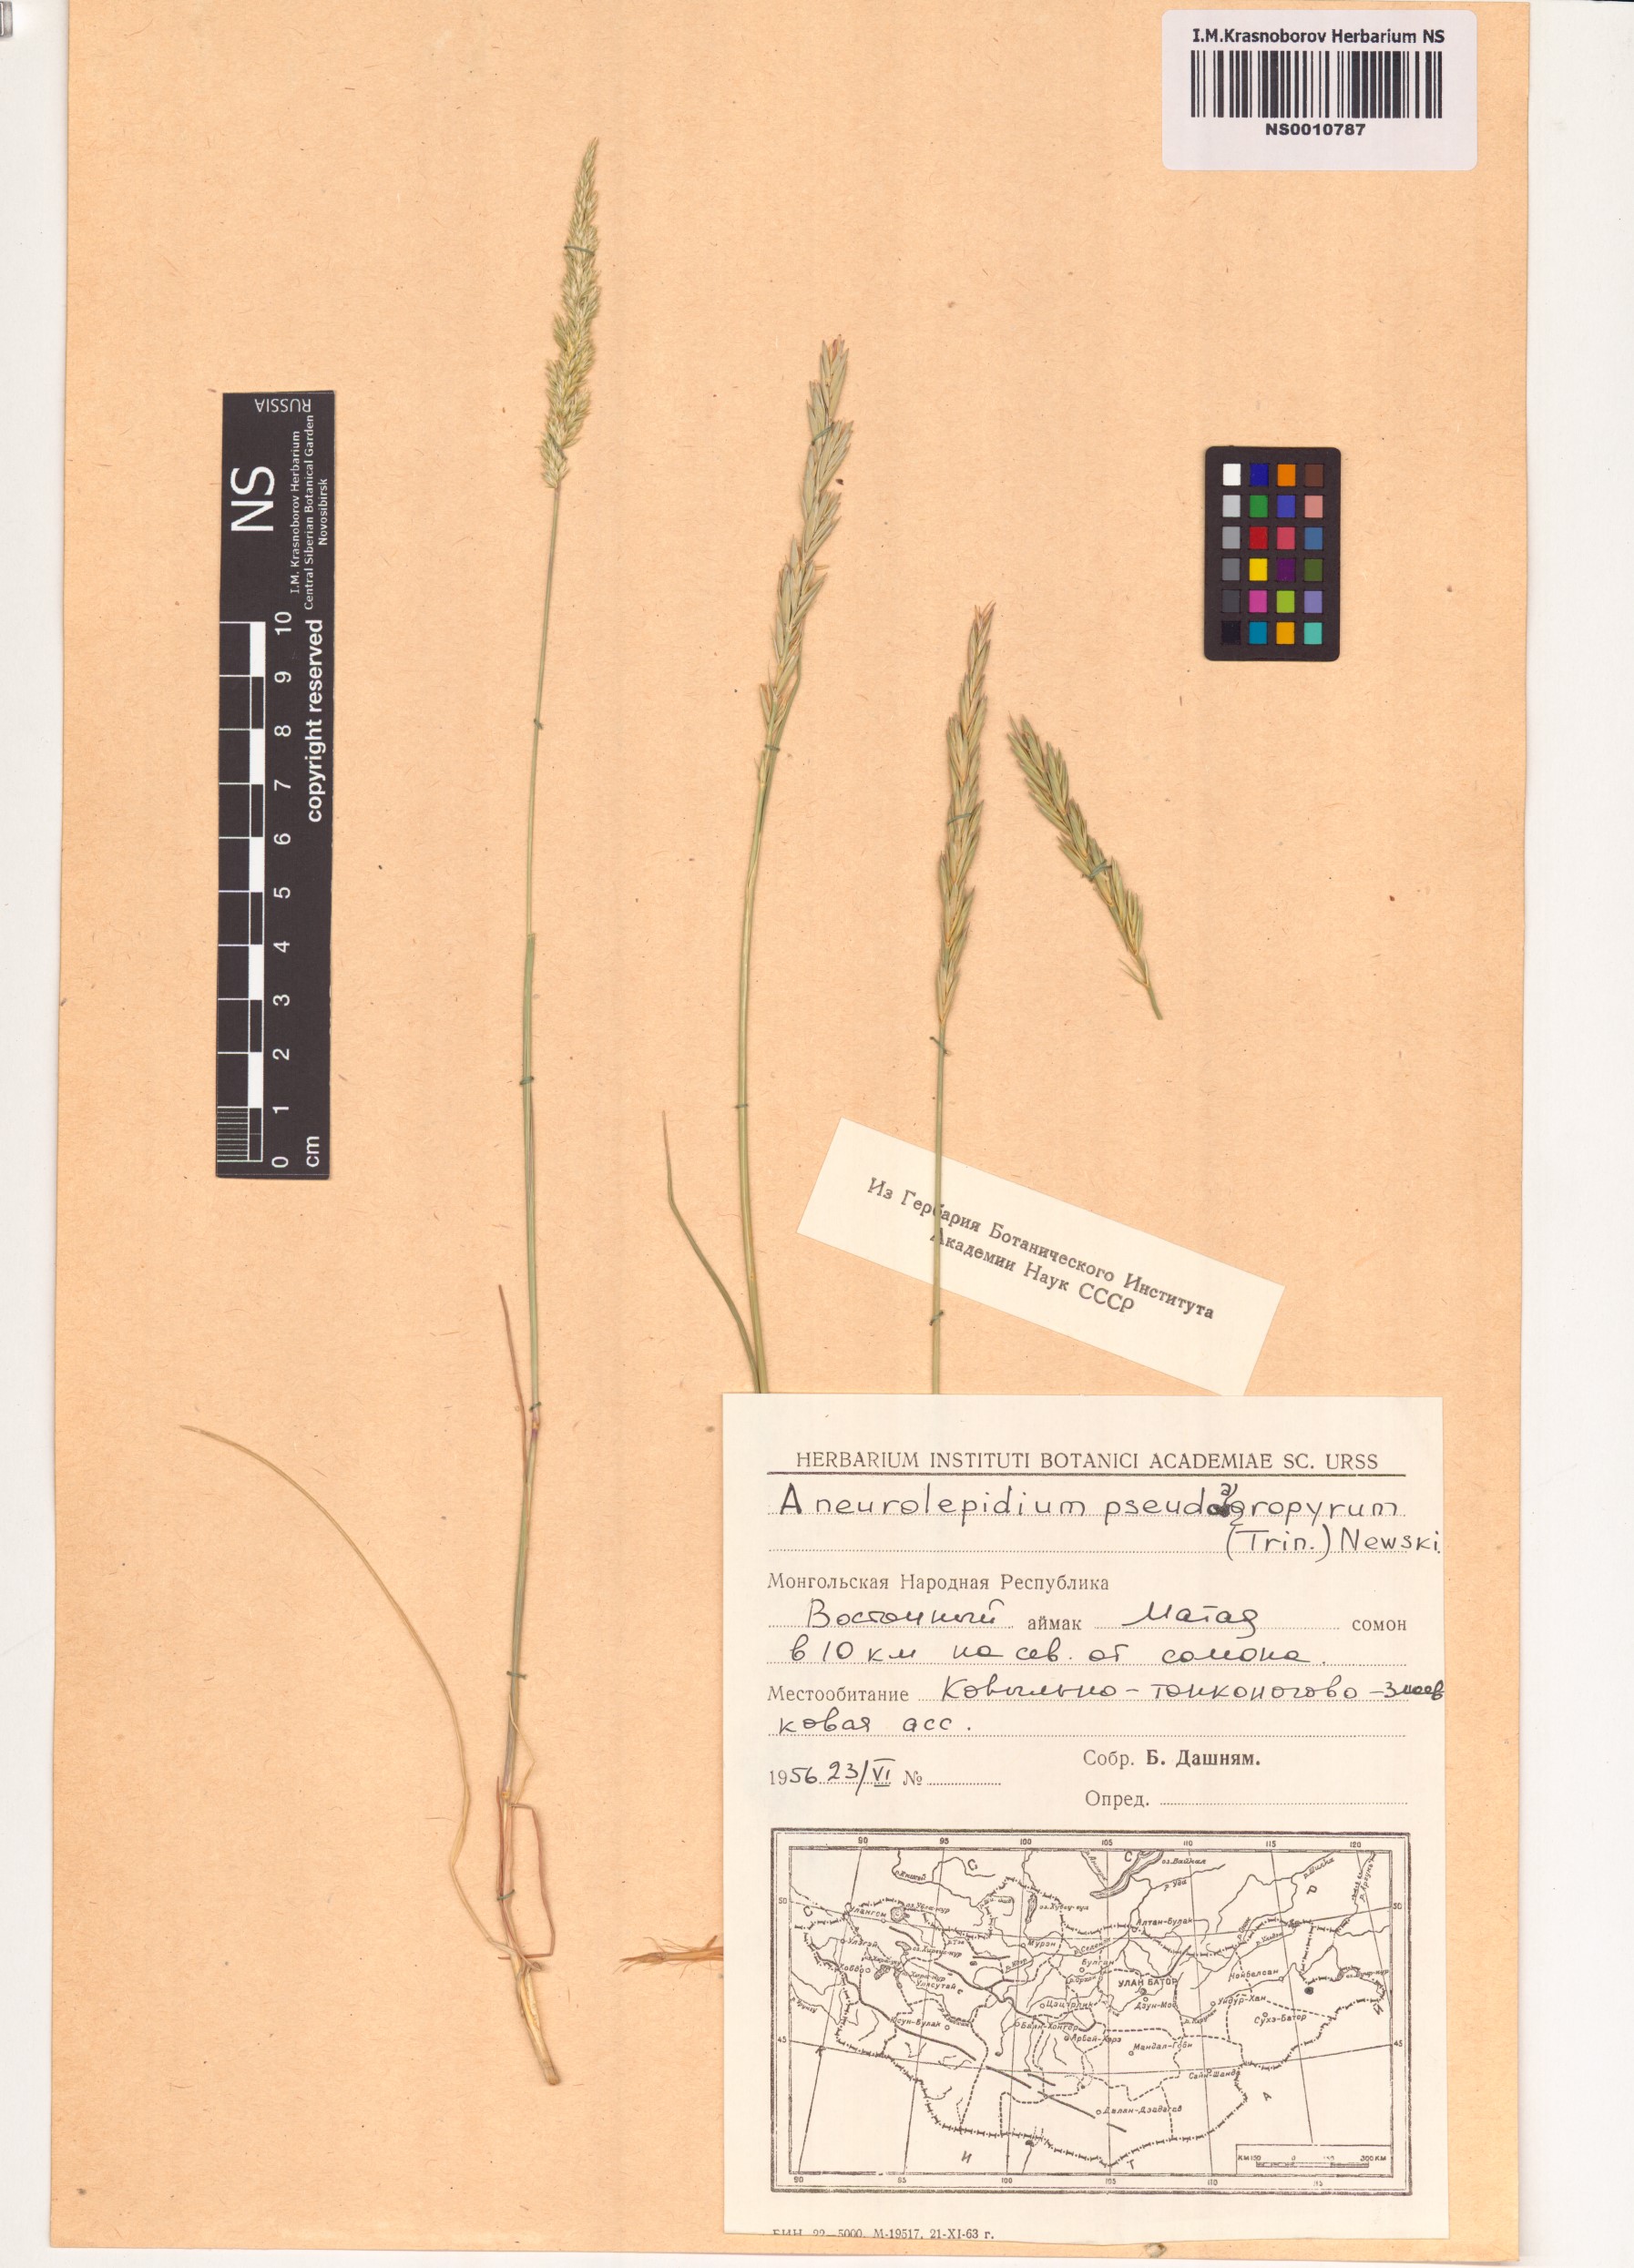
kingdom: Plantae
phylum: Tracheophyta
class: Liliopsida
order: Poales
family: Poaceae
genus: Leymus
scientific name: Leymus chinensis
